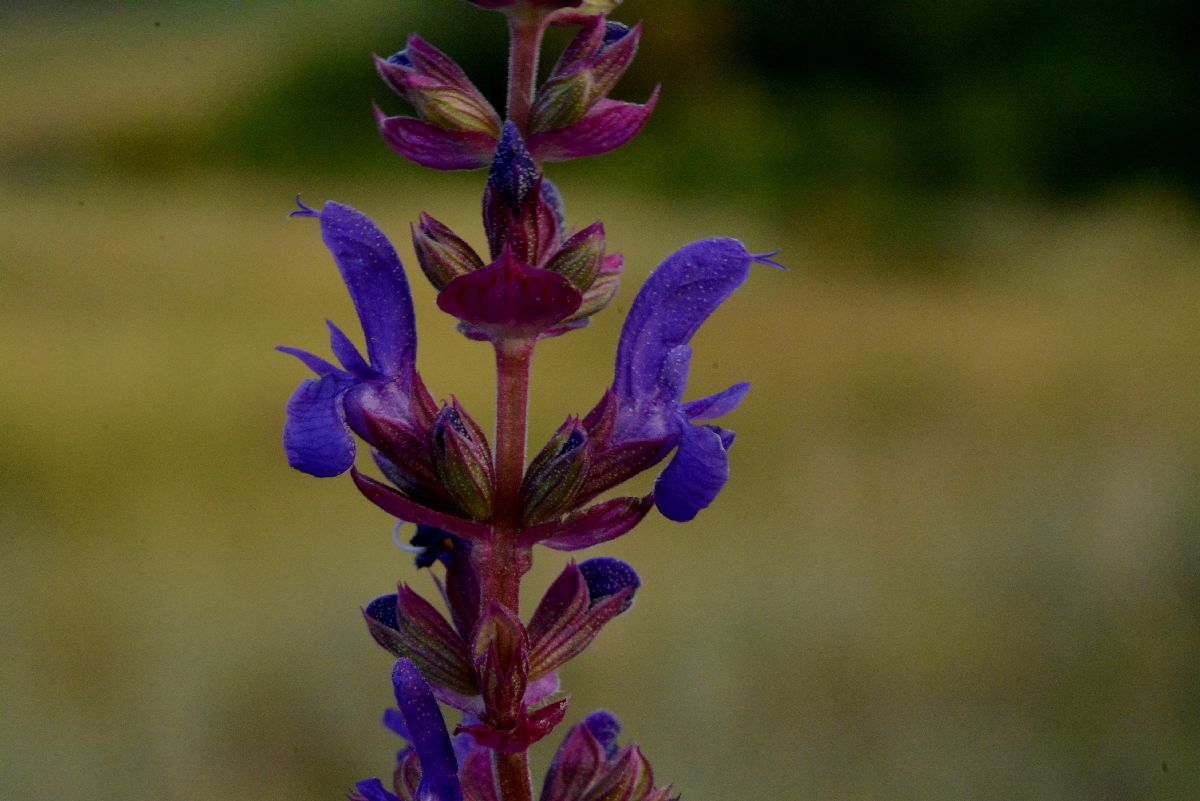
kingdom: Plantae
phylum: Tracheophyta
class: Magnoliopsida
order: Lamiales
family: Lamiaceae
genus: Salvia
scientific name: Salvia nemorosa
